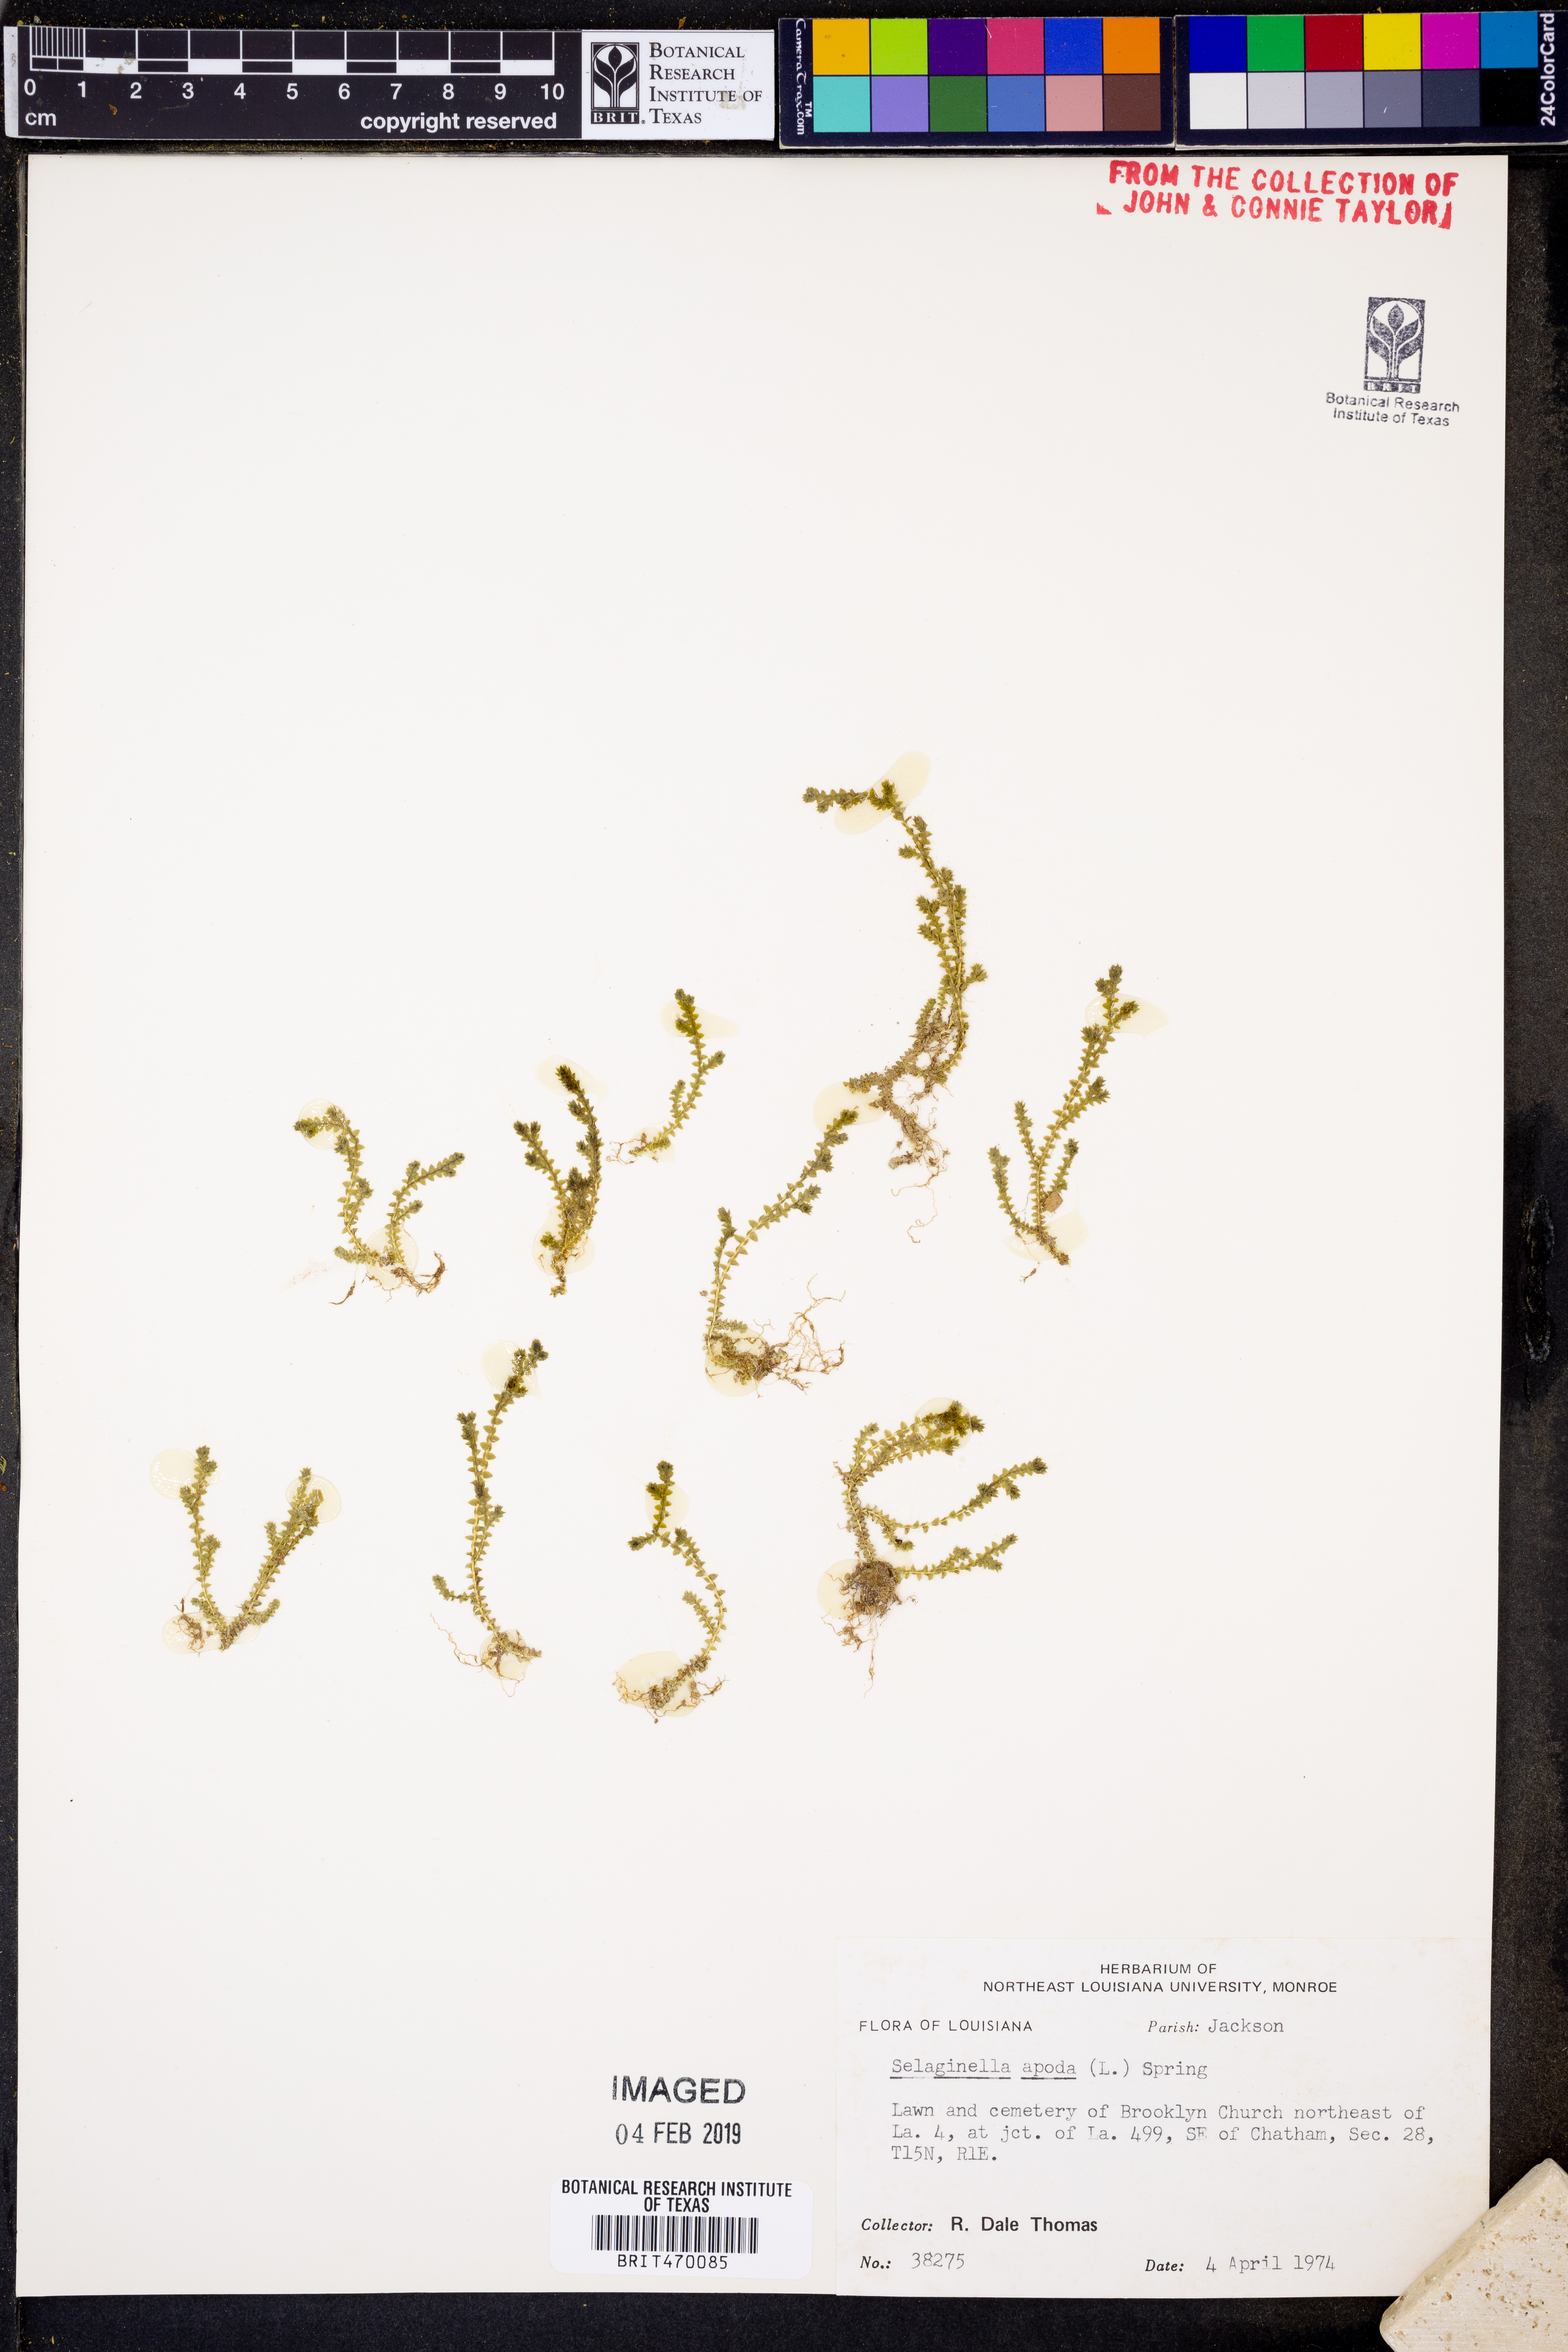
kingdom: Plantae
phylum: Tracheophyta
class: Lycopodiopsida
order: Selaginellales
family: Selaginellaceae
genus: Selaginella
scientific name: Selaginella apoda
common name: Creeping spikemoss
